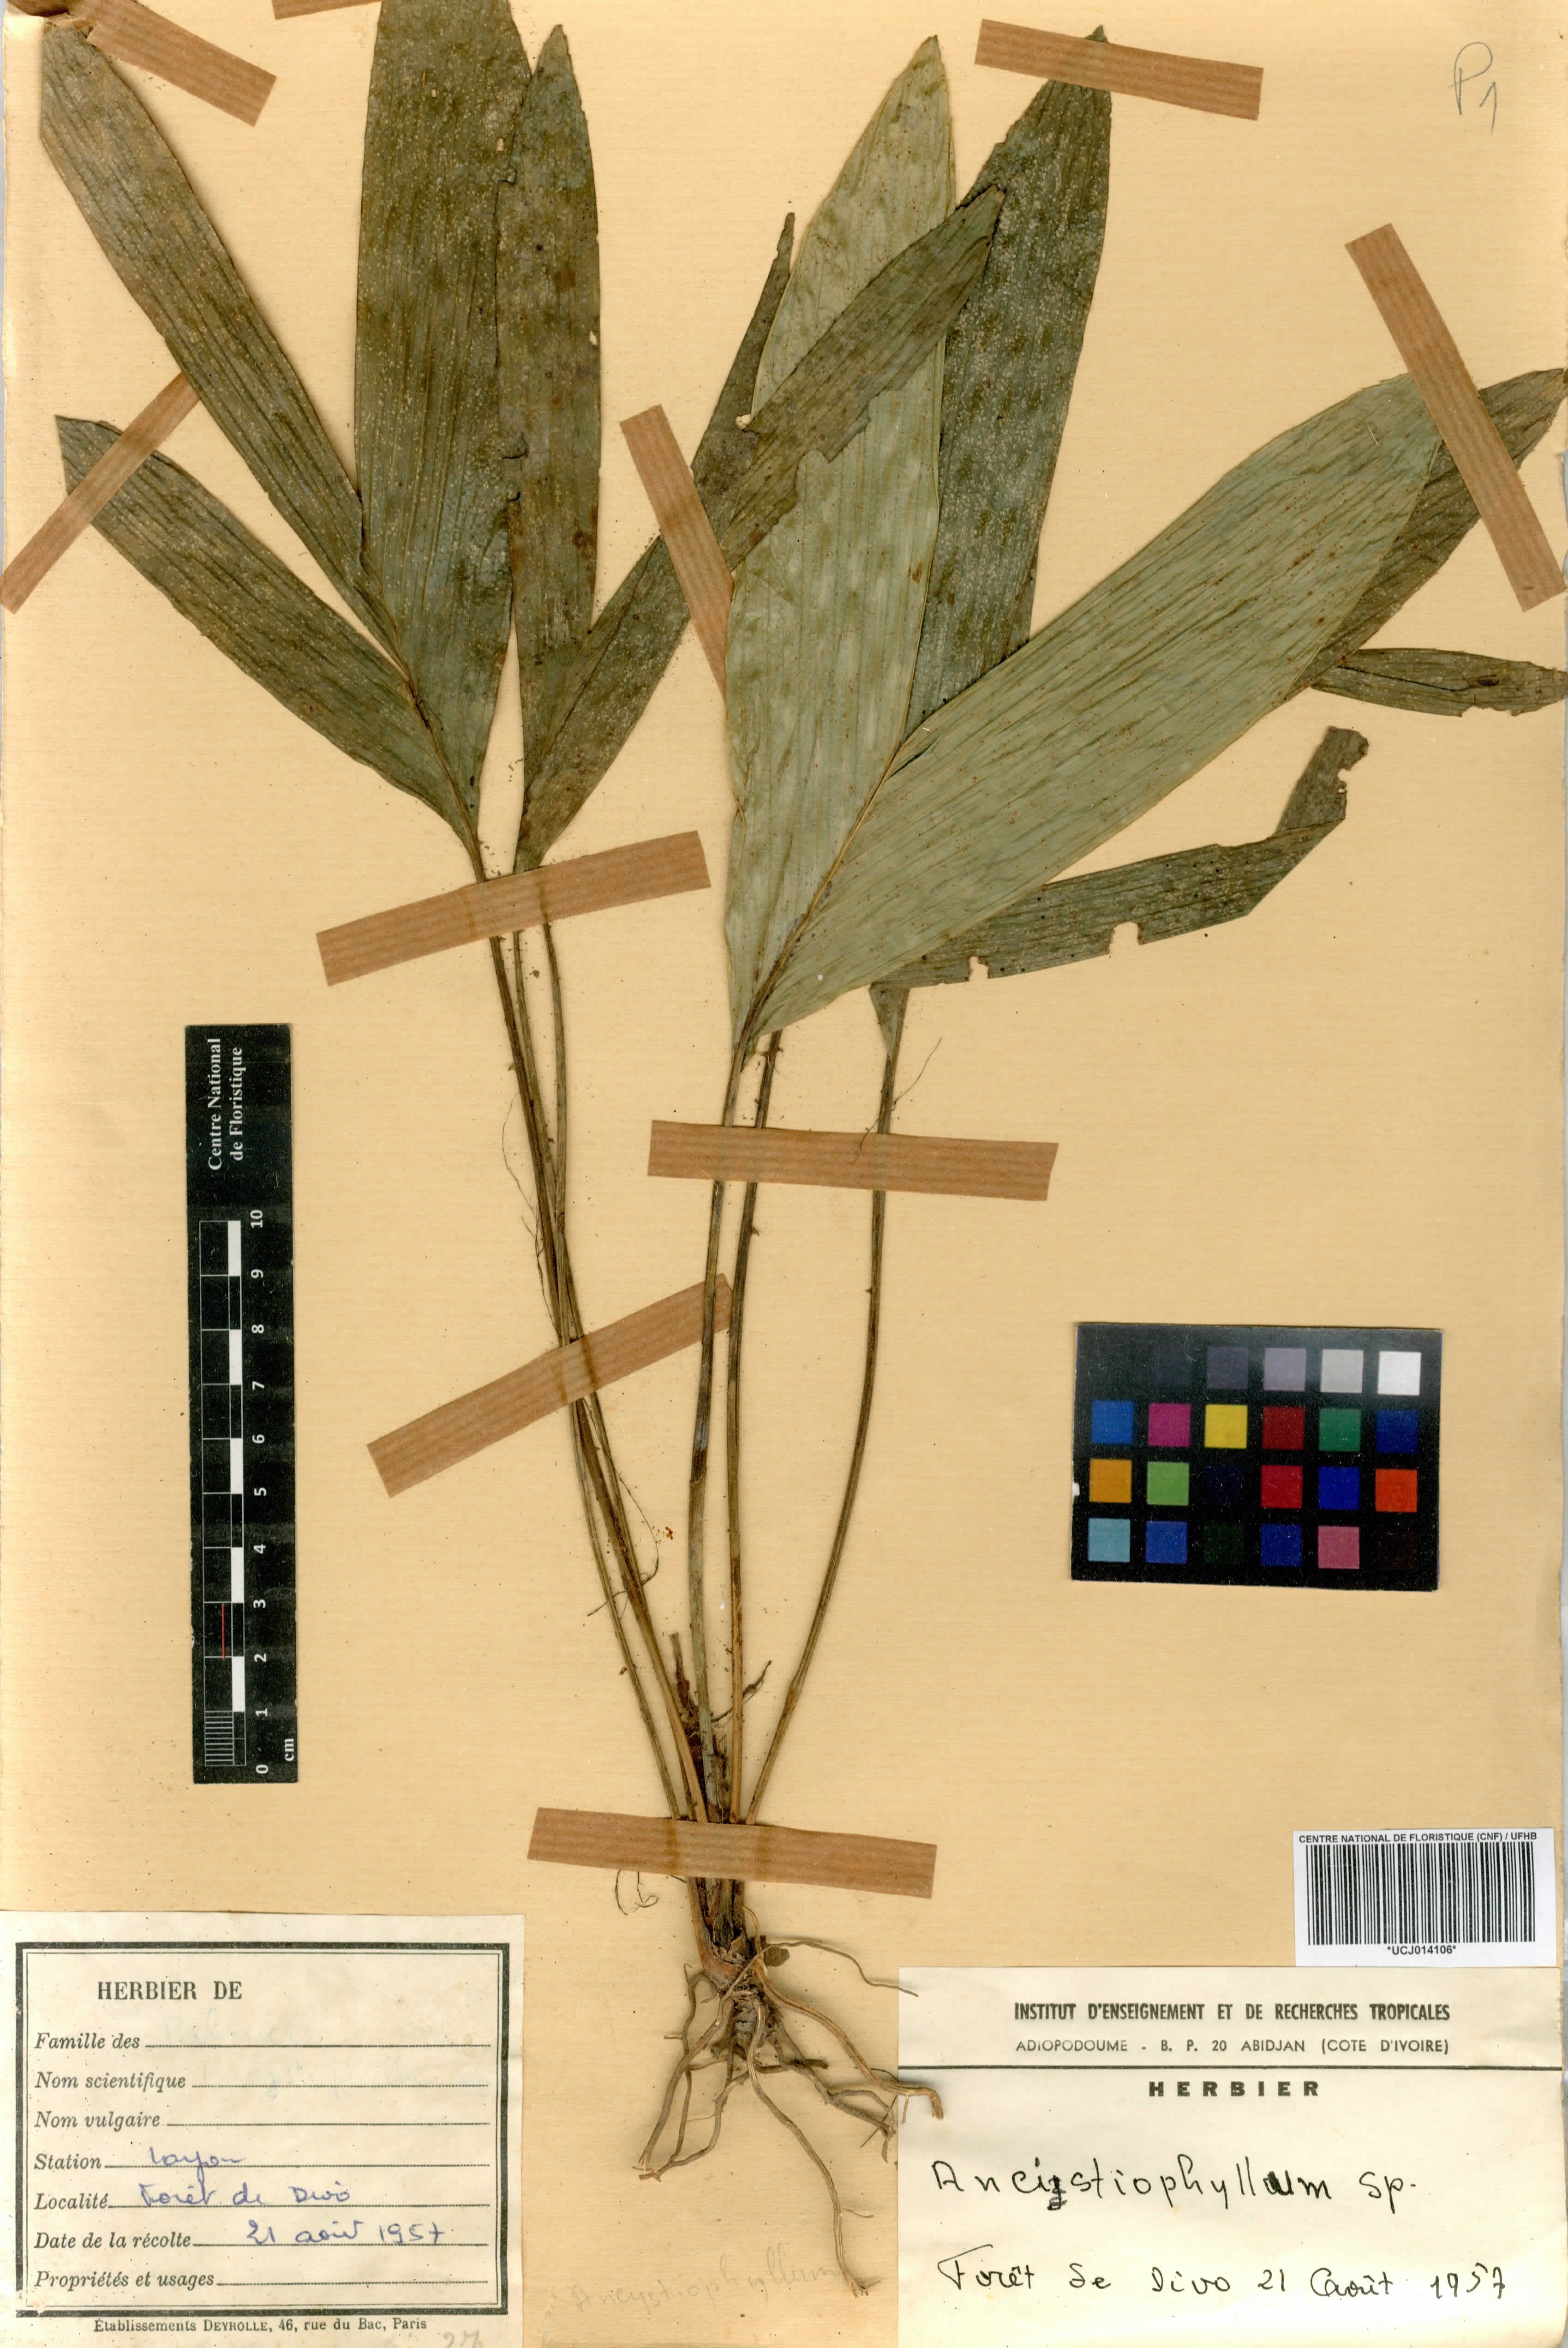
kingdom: Plantae
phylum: Tracheophyta
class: Lycopodiopsida
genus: Ancistrophyllum
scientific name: Ancistrophyllum
